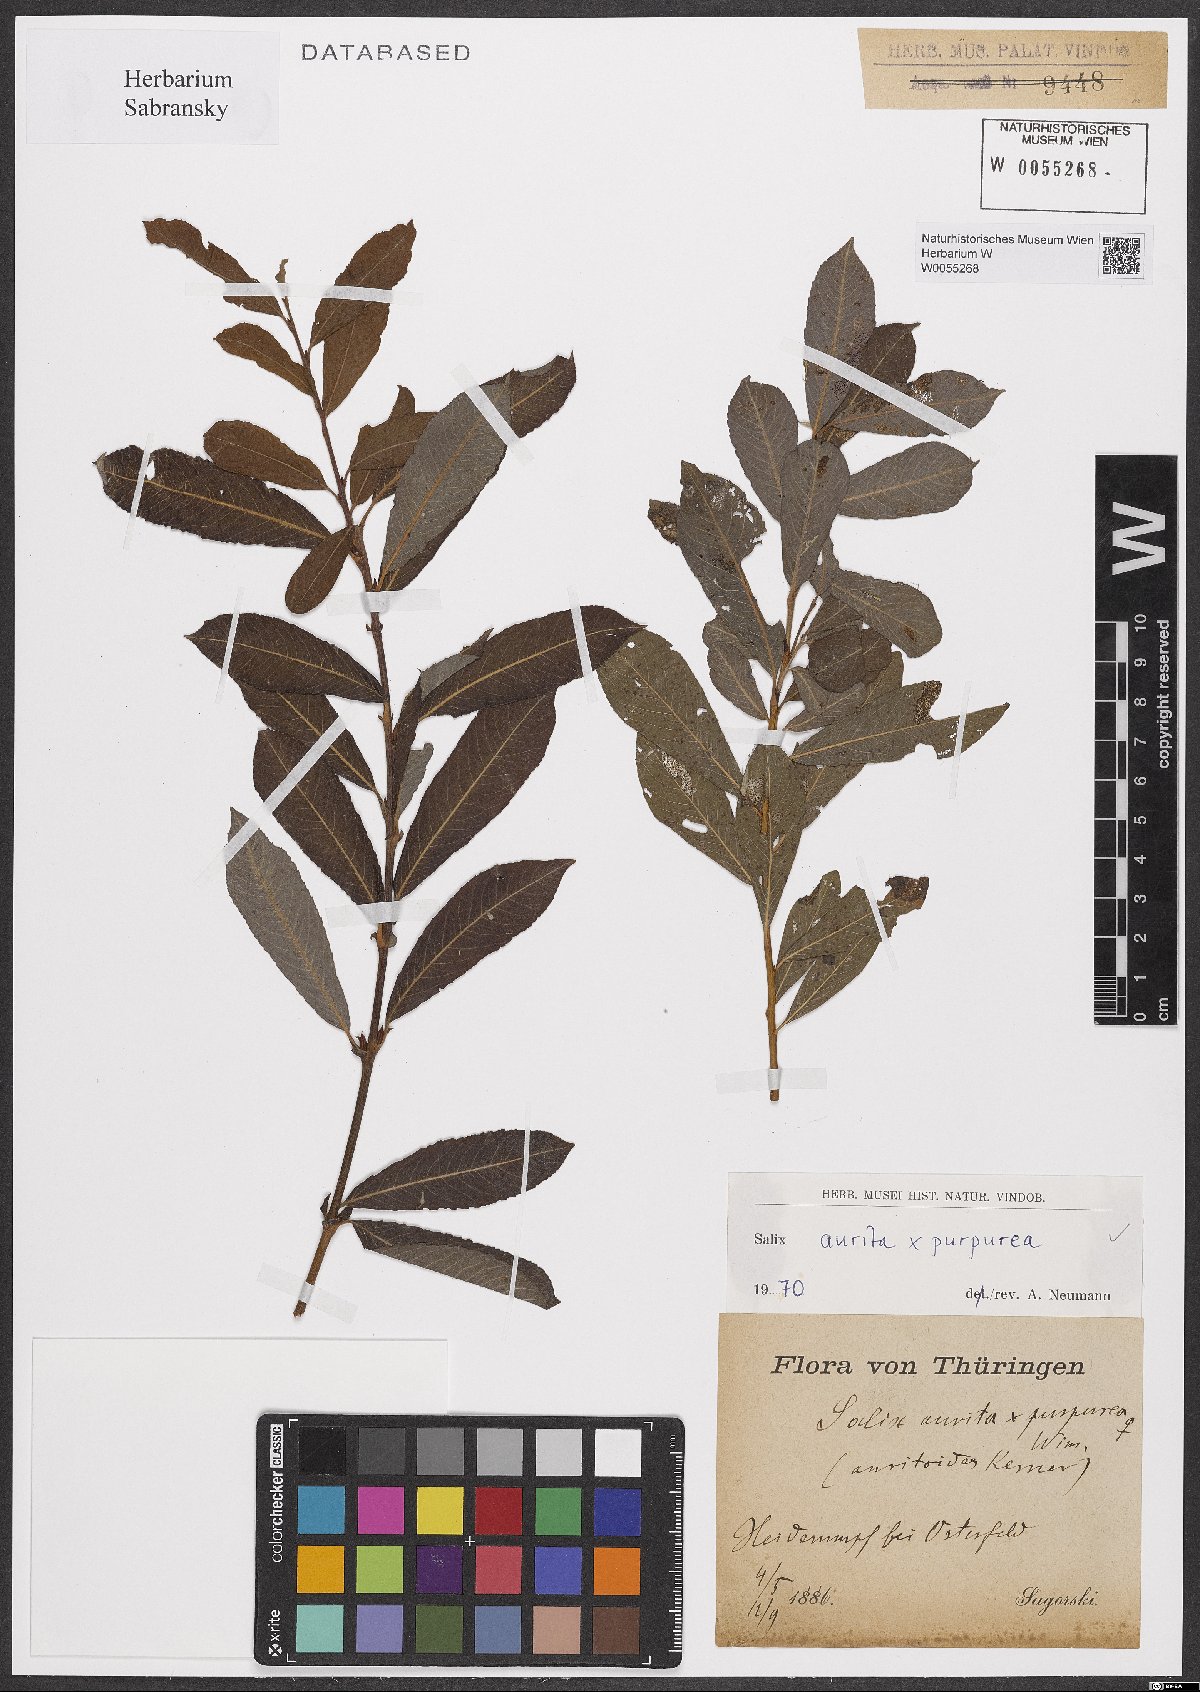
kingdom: Plantae
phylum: Tracheophyta
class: Magnoliopsida
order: Malpighiales
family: Salicaceae
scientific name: Salicaceae
